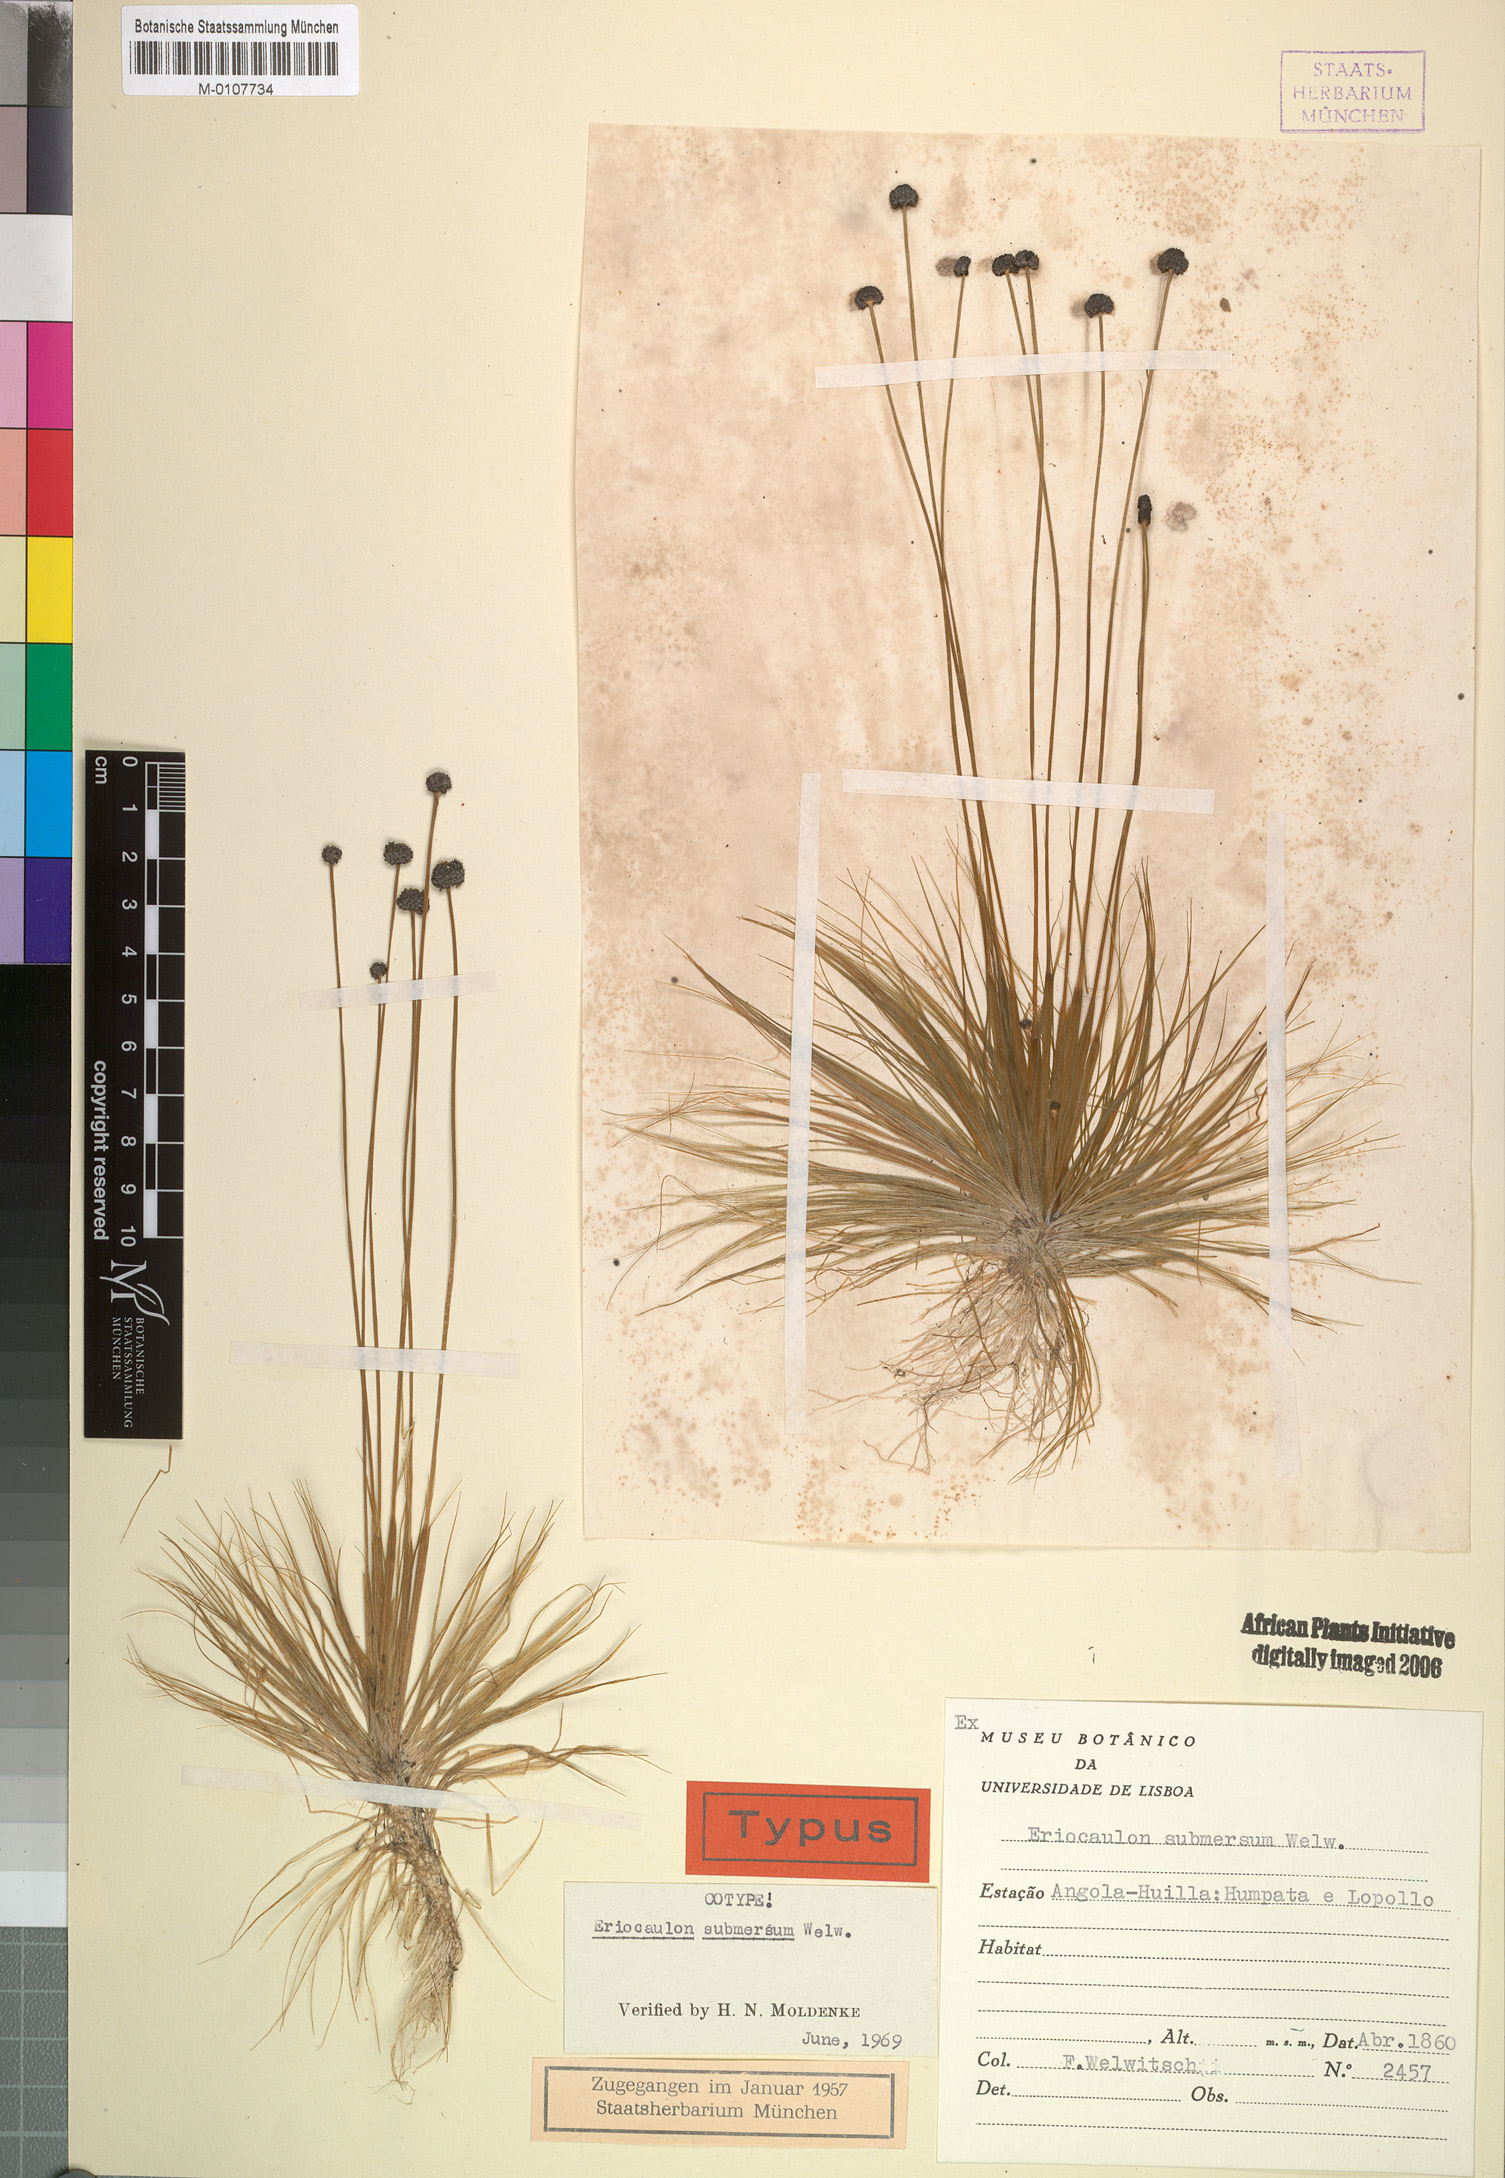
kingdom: Plantae
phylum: Tracheophyta
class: Liliopsida
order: Poales
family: Eriocaulaceae
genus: Eriocaulon
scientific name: Eriocaulon submersum
